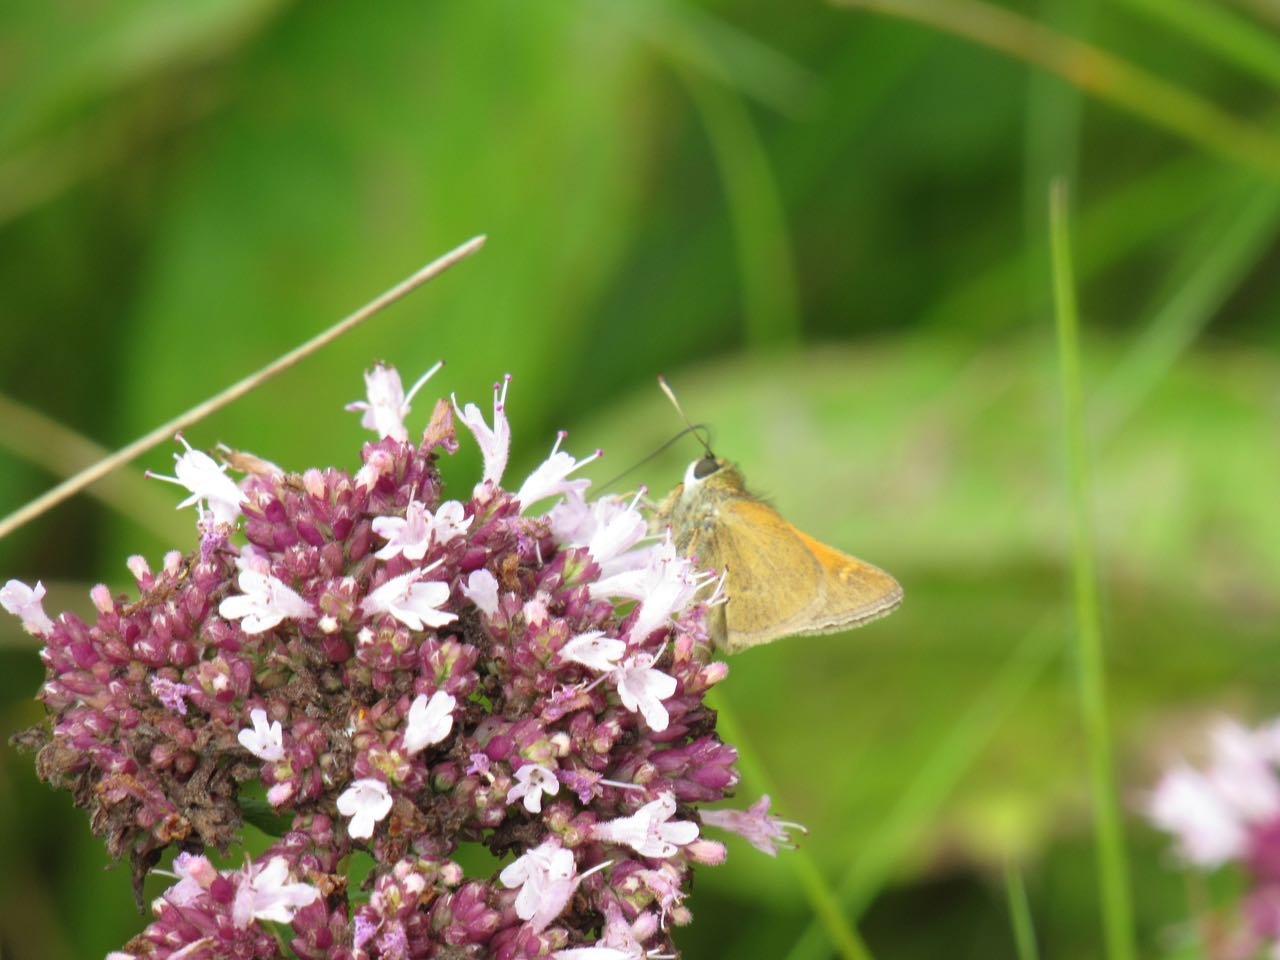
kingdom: Animalia
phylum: Arthropoda
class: Insecta
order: Lepidoptera
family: Hesperiidae
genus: Polites
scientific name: Polites themistocles
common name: Tawny-edged Skipper
